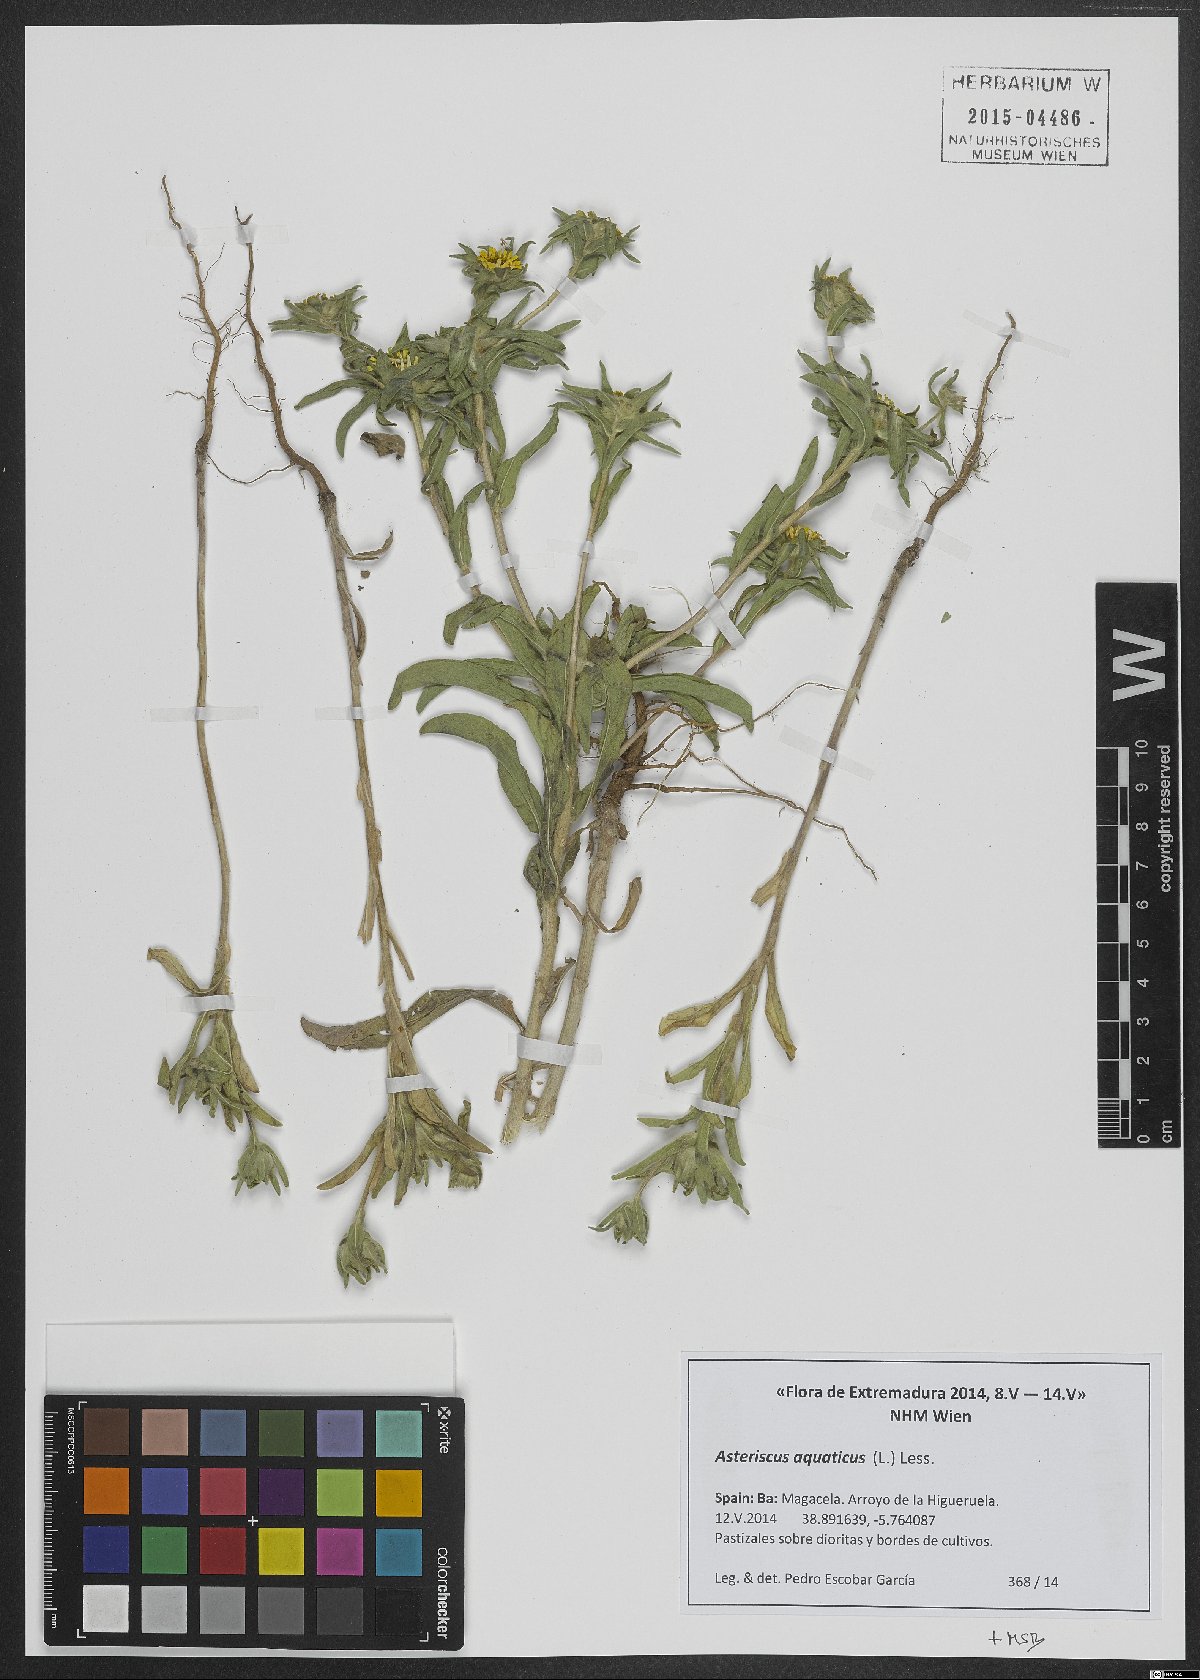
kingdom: Plantae
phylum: Tracheophyta
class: Magnoliopsida
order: Asterales
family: Asteraceae
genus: Asteriscus
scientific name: Asteriscus aquaticus
